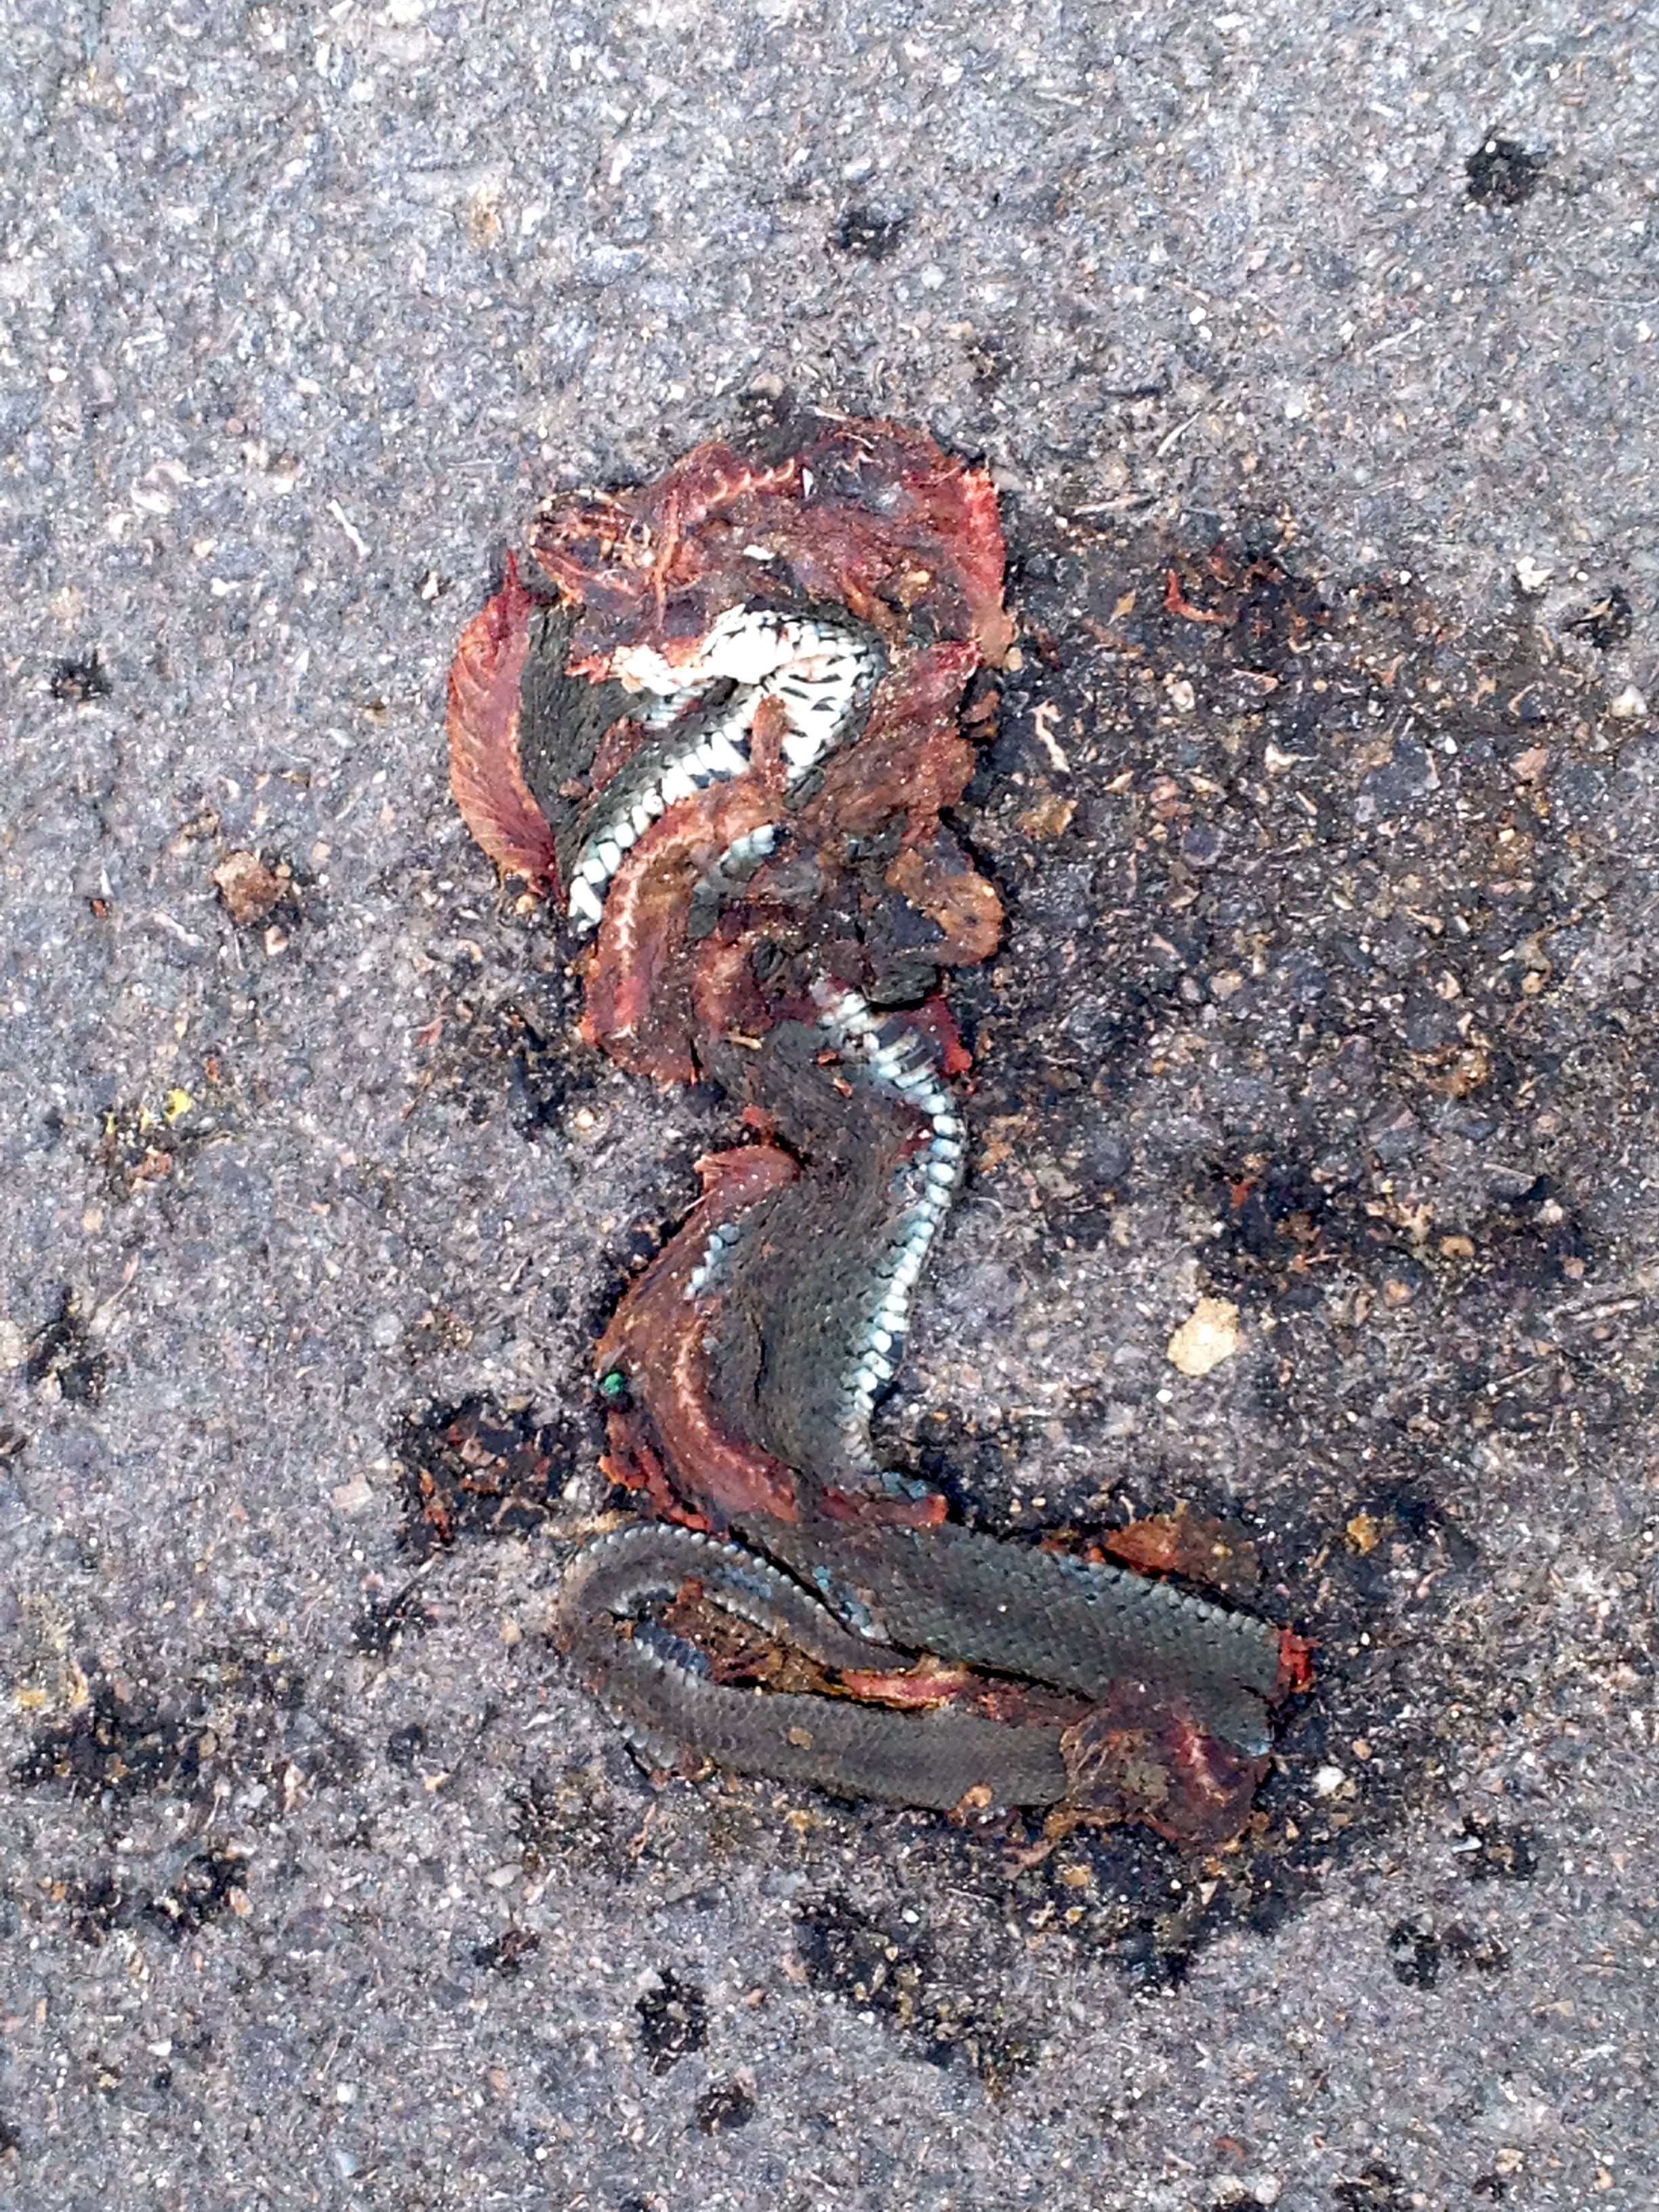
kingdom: Animalia
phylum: Chordata
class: Squamata
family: Colubridae
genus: Natrix
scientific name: Natrix natrix
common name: Grass snake
